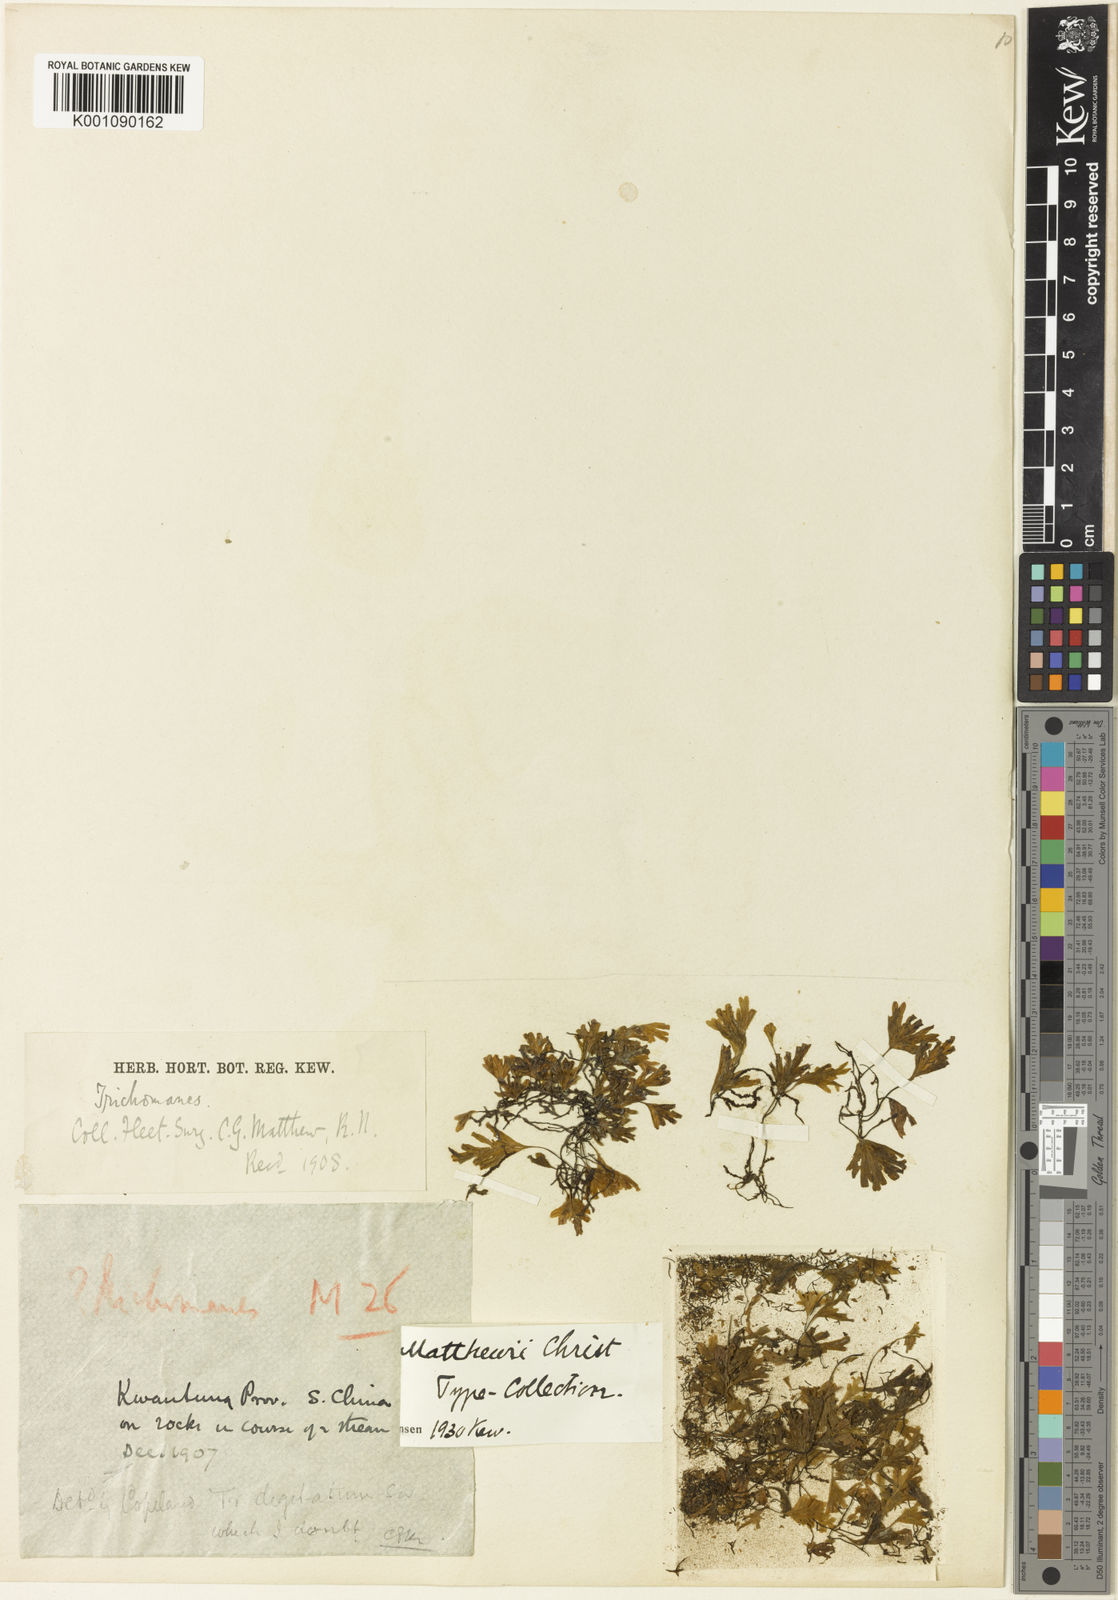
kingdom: Plantae
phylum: Tracheophyta
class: Polypodiopsida
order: Hymenophyllales
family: Hymenophyllaceae
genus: Crepidomanes
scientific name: Crepidomanes parvulum
